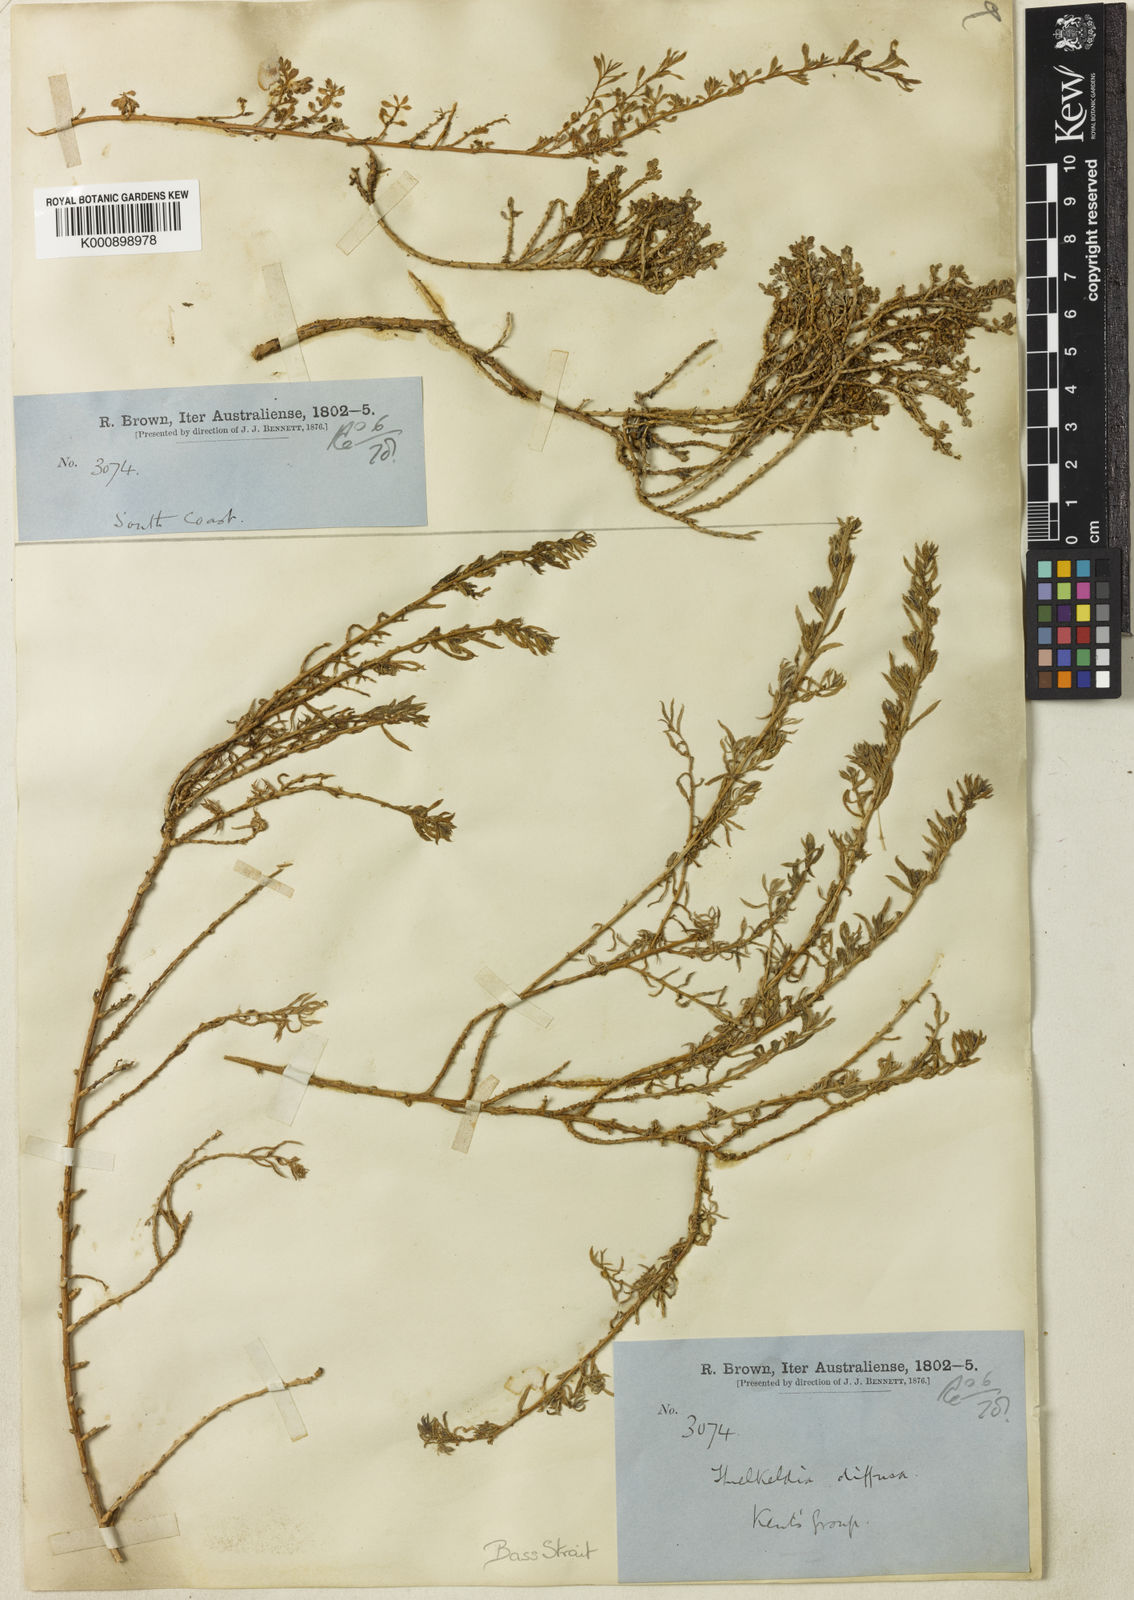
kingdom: Plantae
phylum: Tracheophyta
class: Magnoliopsida
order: Caryophyllales
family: Amaranthaceae
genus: Threlkeldia
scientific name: Threlkeldia diffusa
